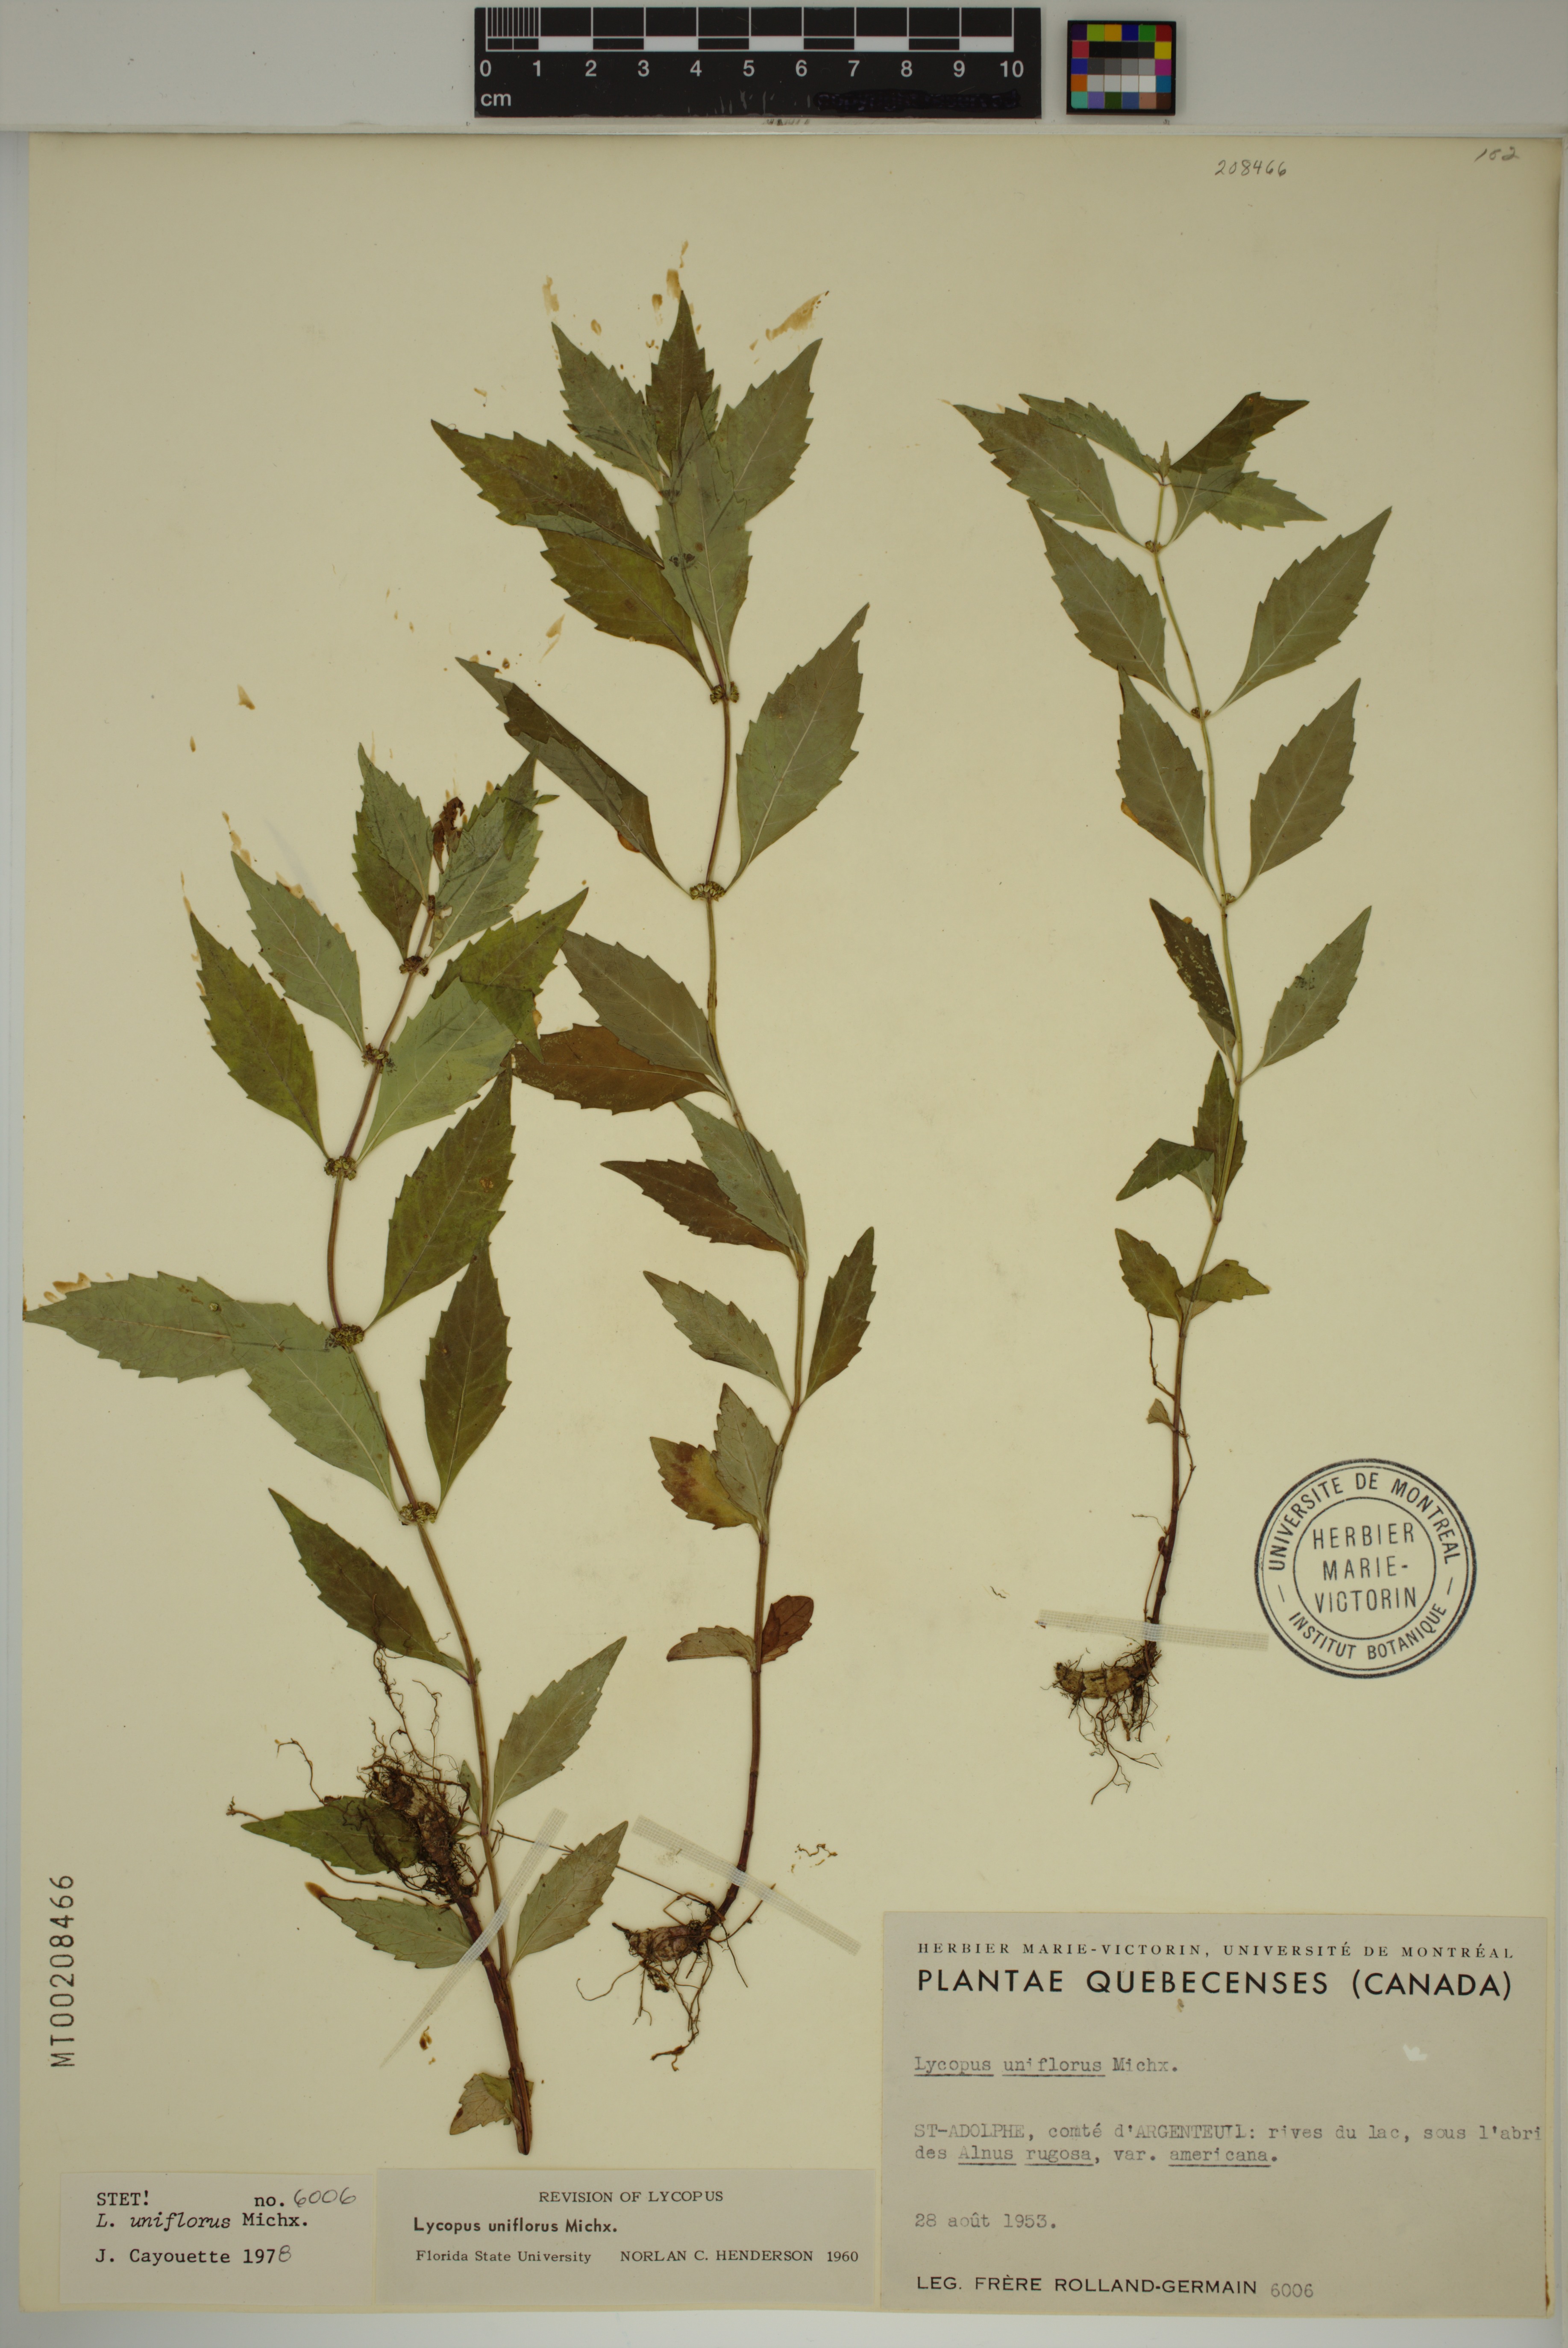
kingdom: Plantae
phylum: Tracheophyta
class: Magnoliopsida
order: Lamiales
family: Lamiaceae
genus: Lycopus
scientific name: Lycopus uniflorus
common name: Northern bugleweed
